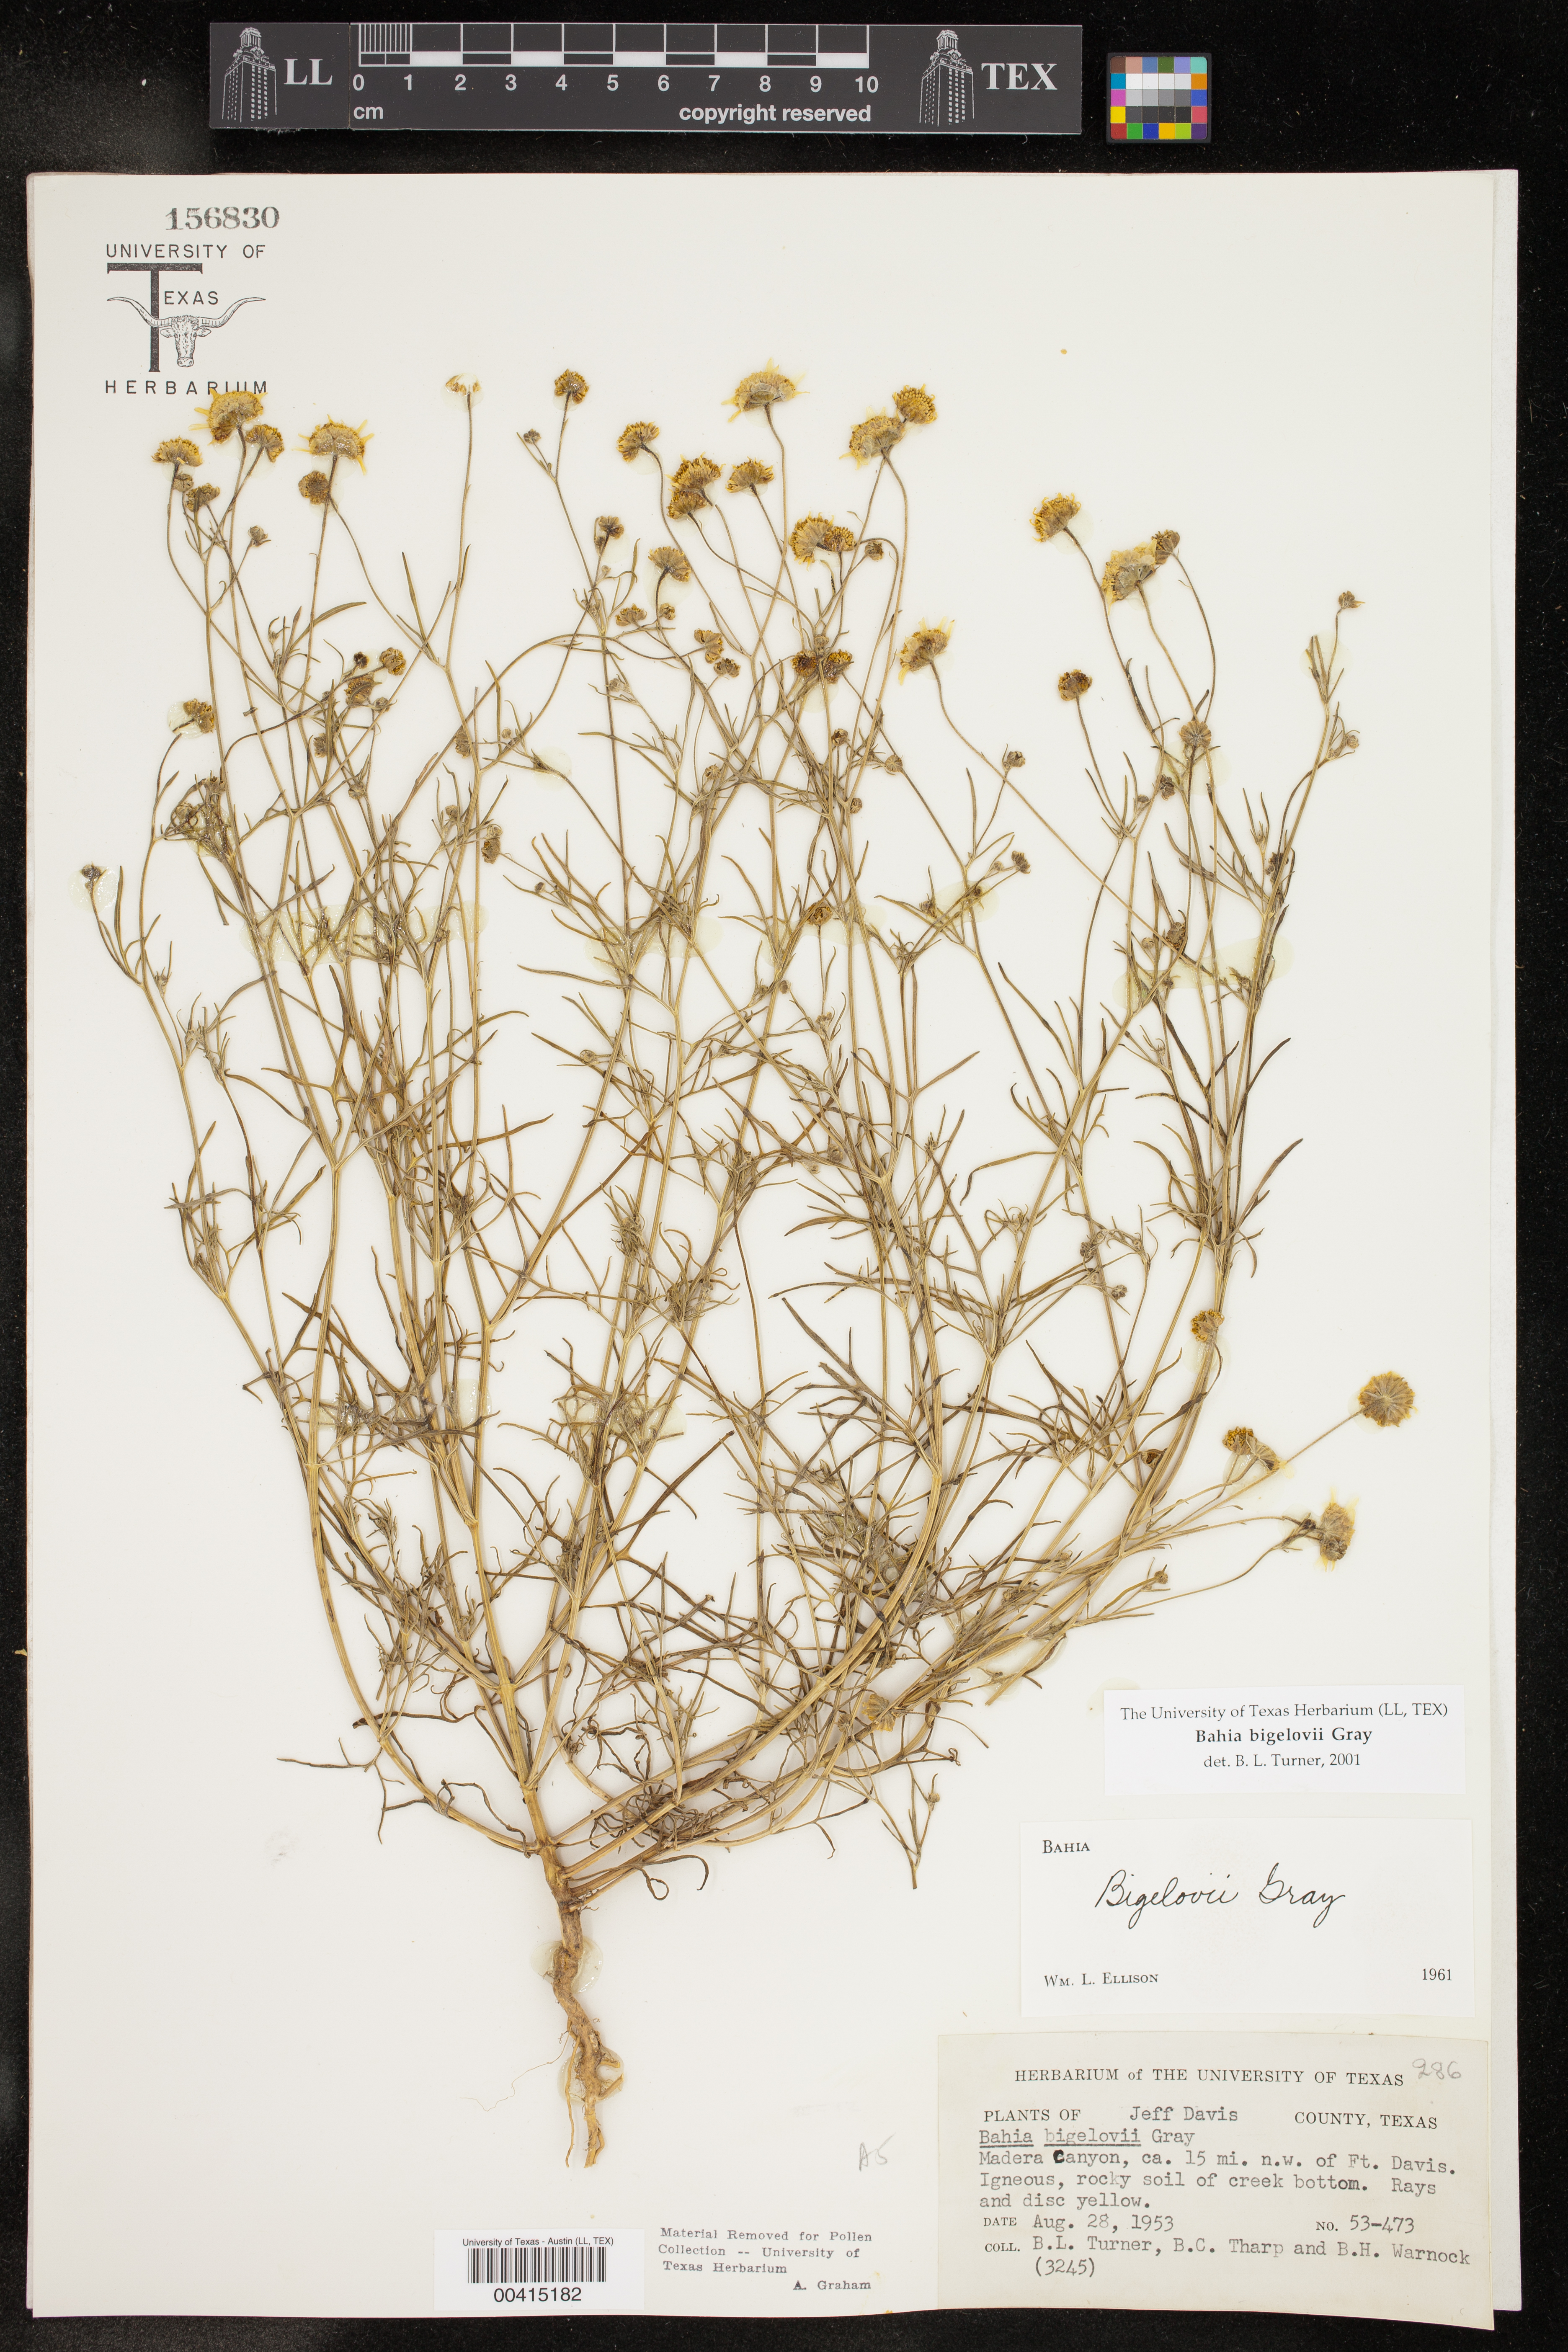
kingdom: Plantae
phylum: Tracheophyta
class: Magnoliopsida
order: Asterales
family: Asteraceae
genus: Picradeniopsis
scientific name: Picradeniopsis bigelovii
